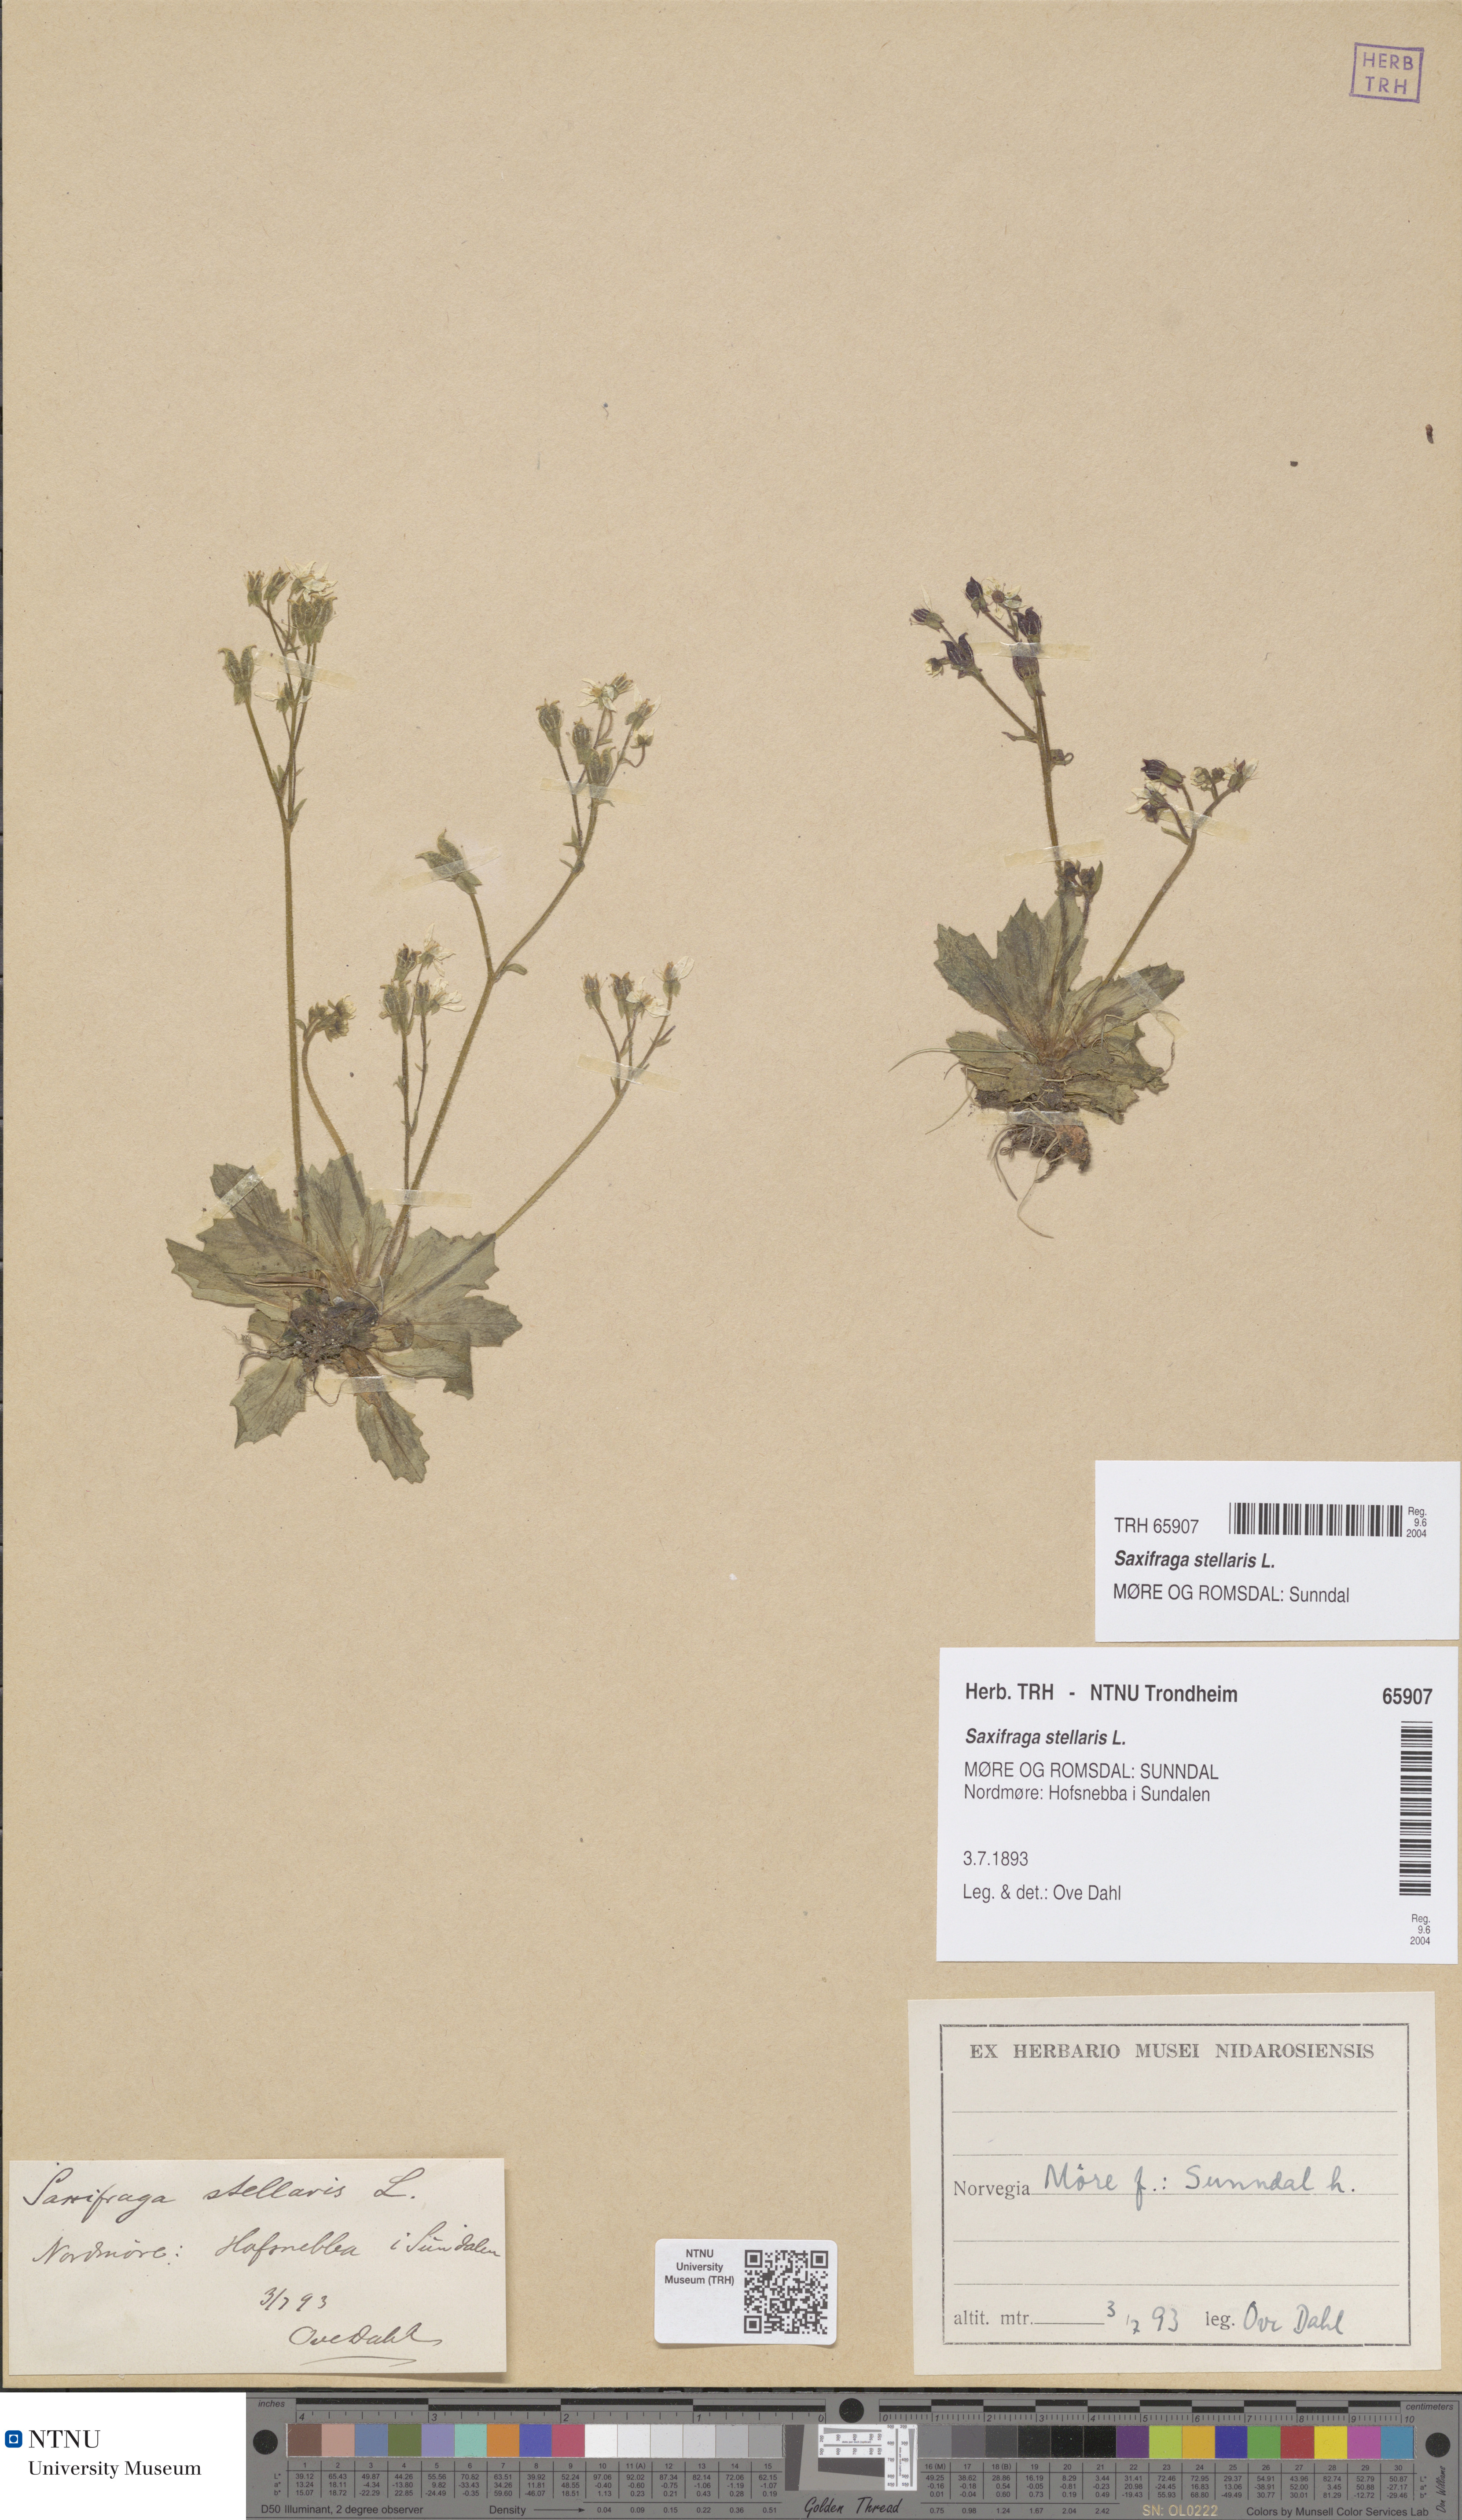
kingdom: Plantae
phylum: Tracheophyta
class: Magnoliopsida
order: Saxifragales
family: Saxifragaceae
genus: Micranthes
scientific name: Micranthes stellaris
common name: Starry saxifrage
